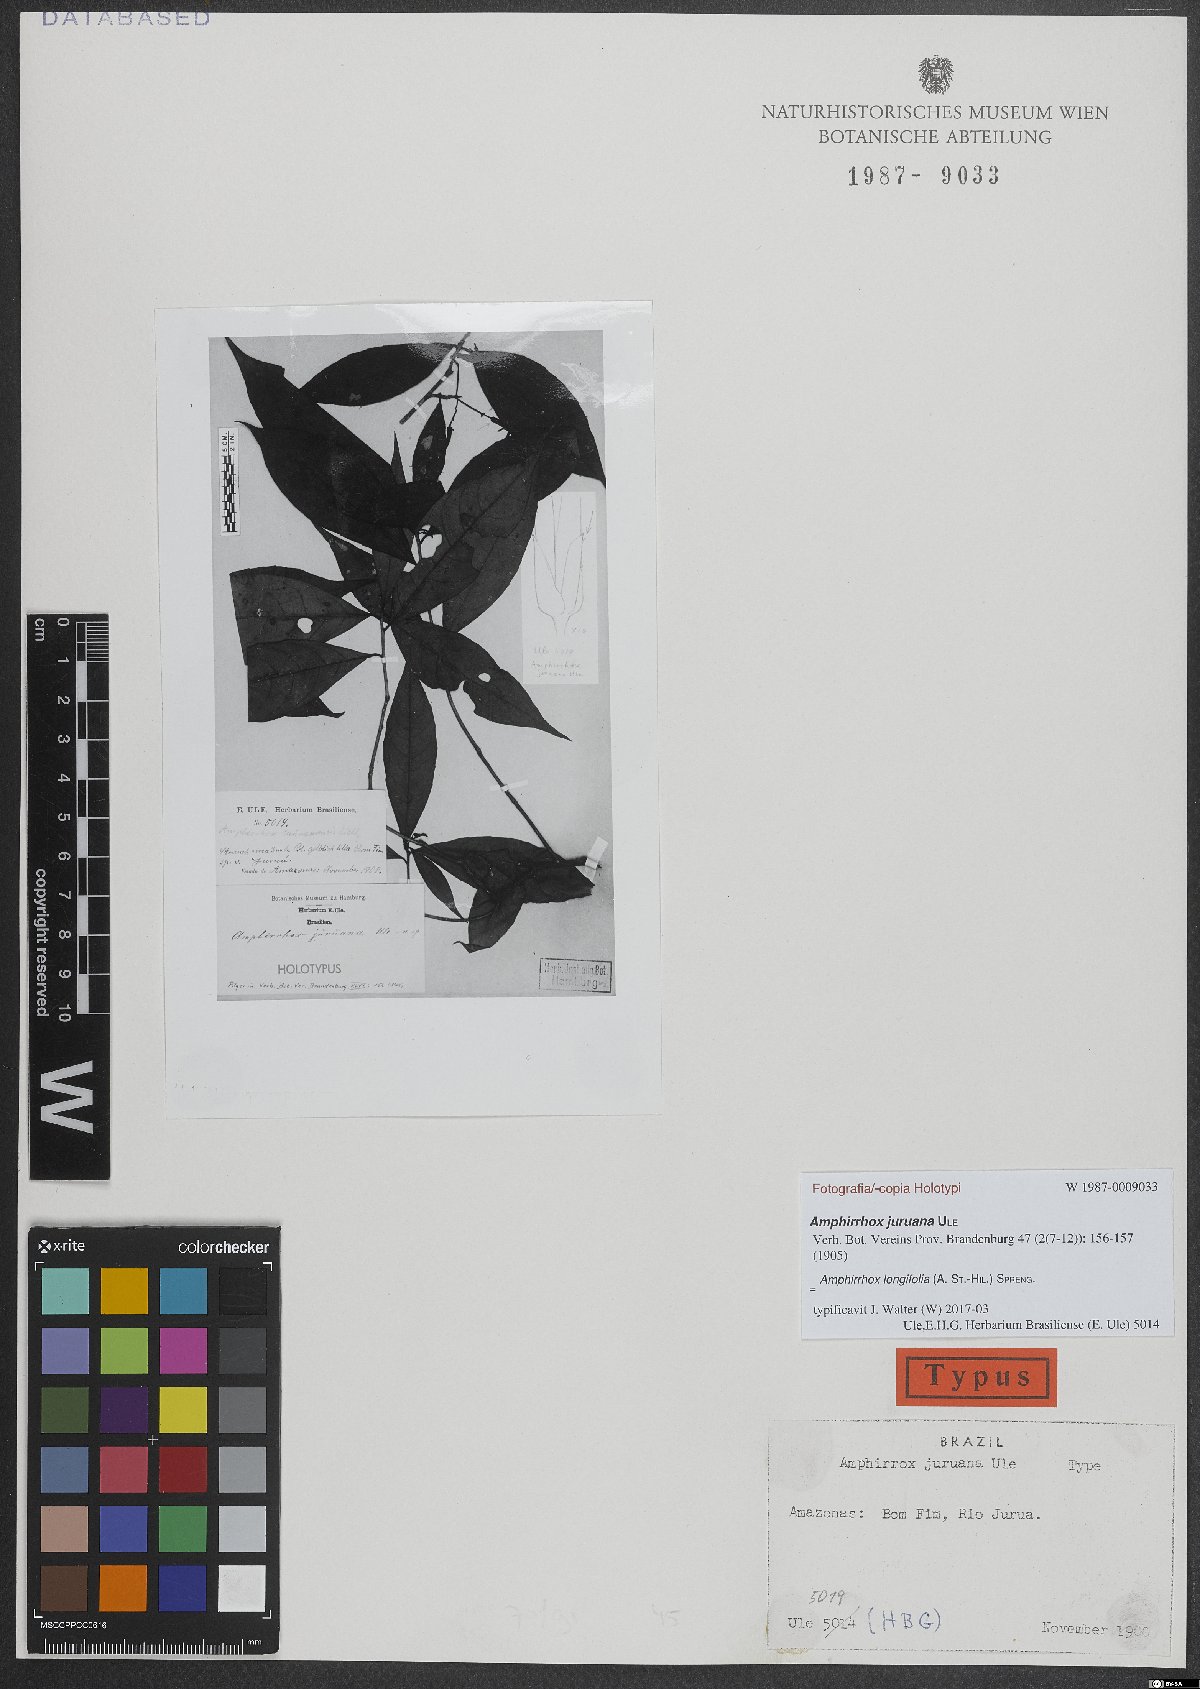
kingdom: Plantae
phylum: Tracheophyta
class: Magnoliopsida
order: Malpighiales
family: Violaceae
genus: Amphirrhox
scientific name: Amphirrhox longifolia
